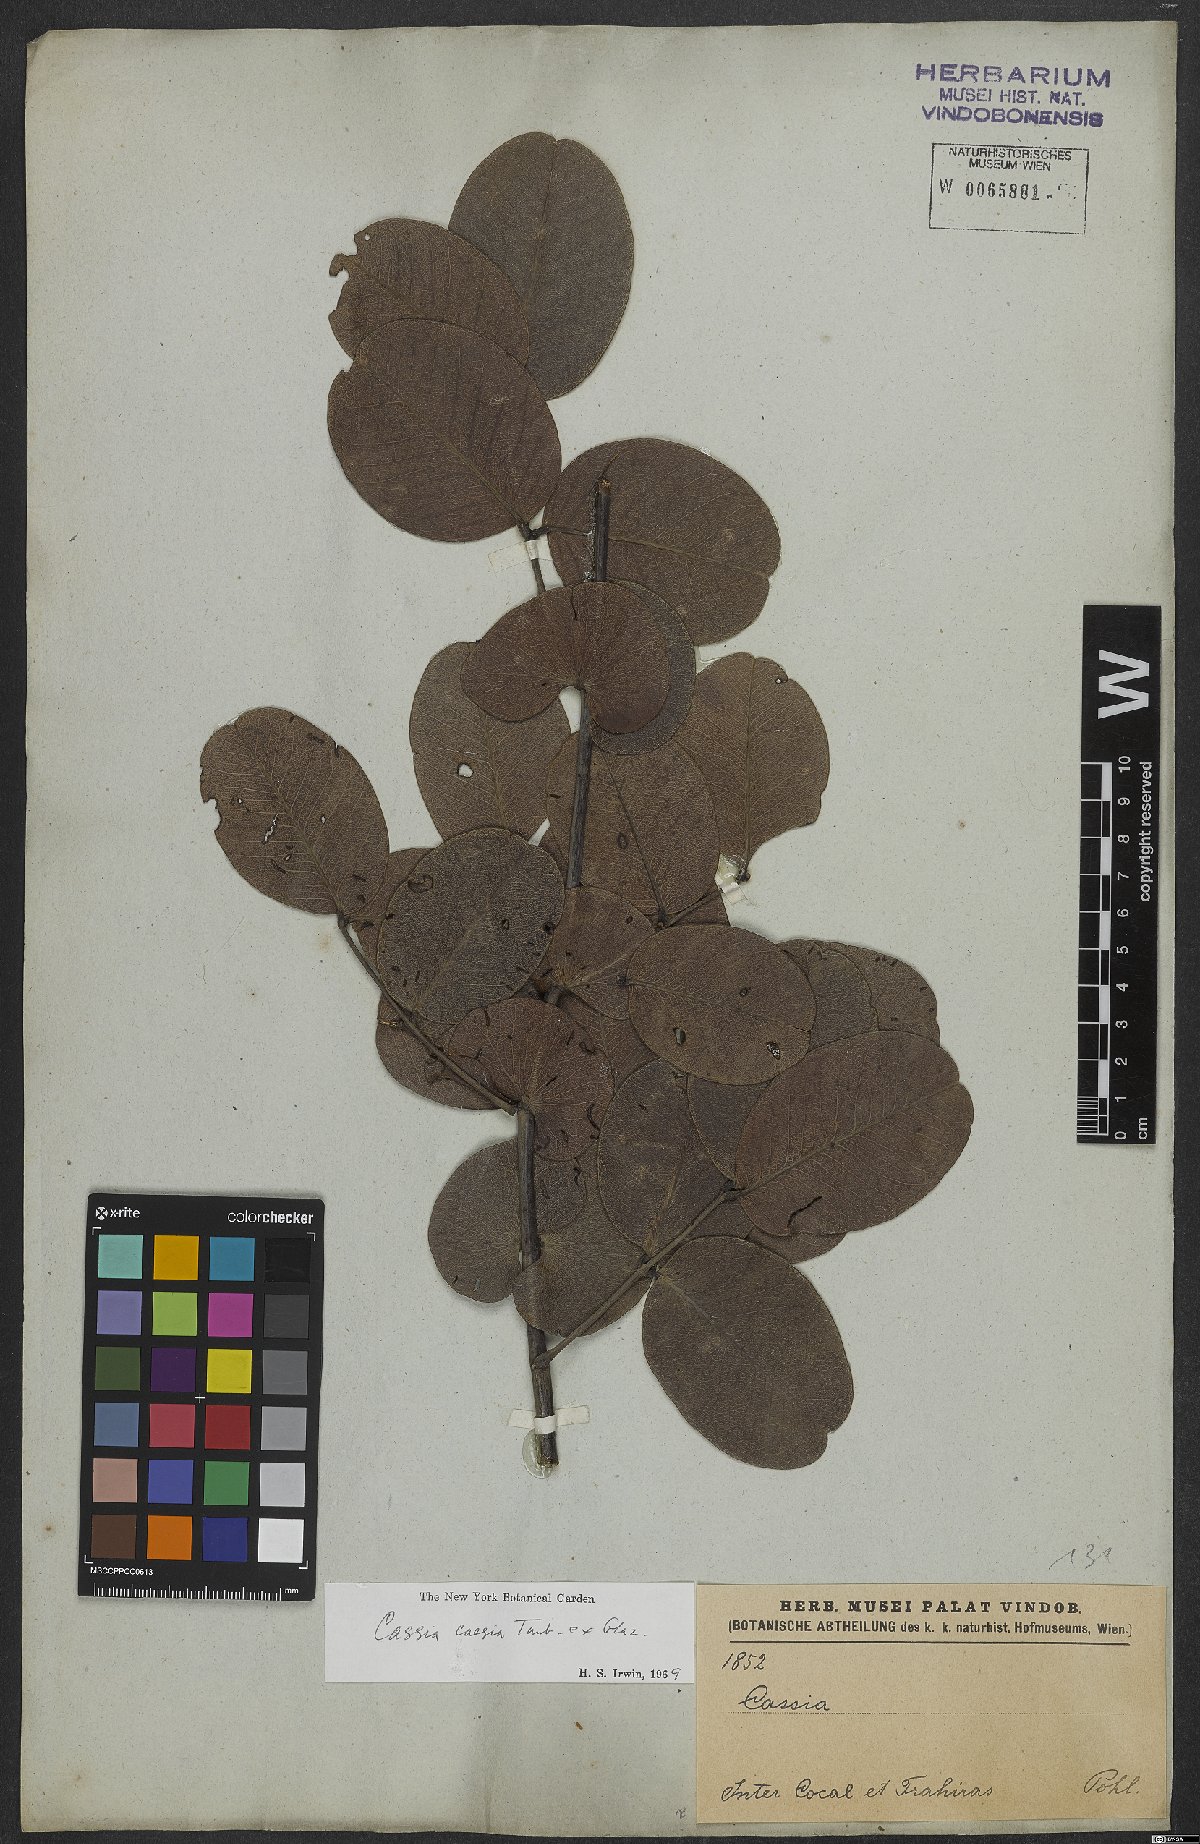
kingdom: Plantae
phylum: Tracheophyta
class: Magnoliopsida
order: Fabales
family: Fabaceae
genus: Senna
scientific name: Senna corifolia
